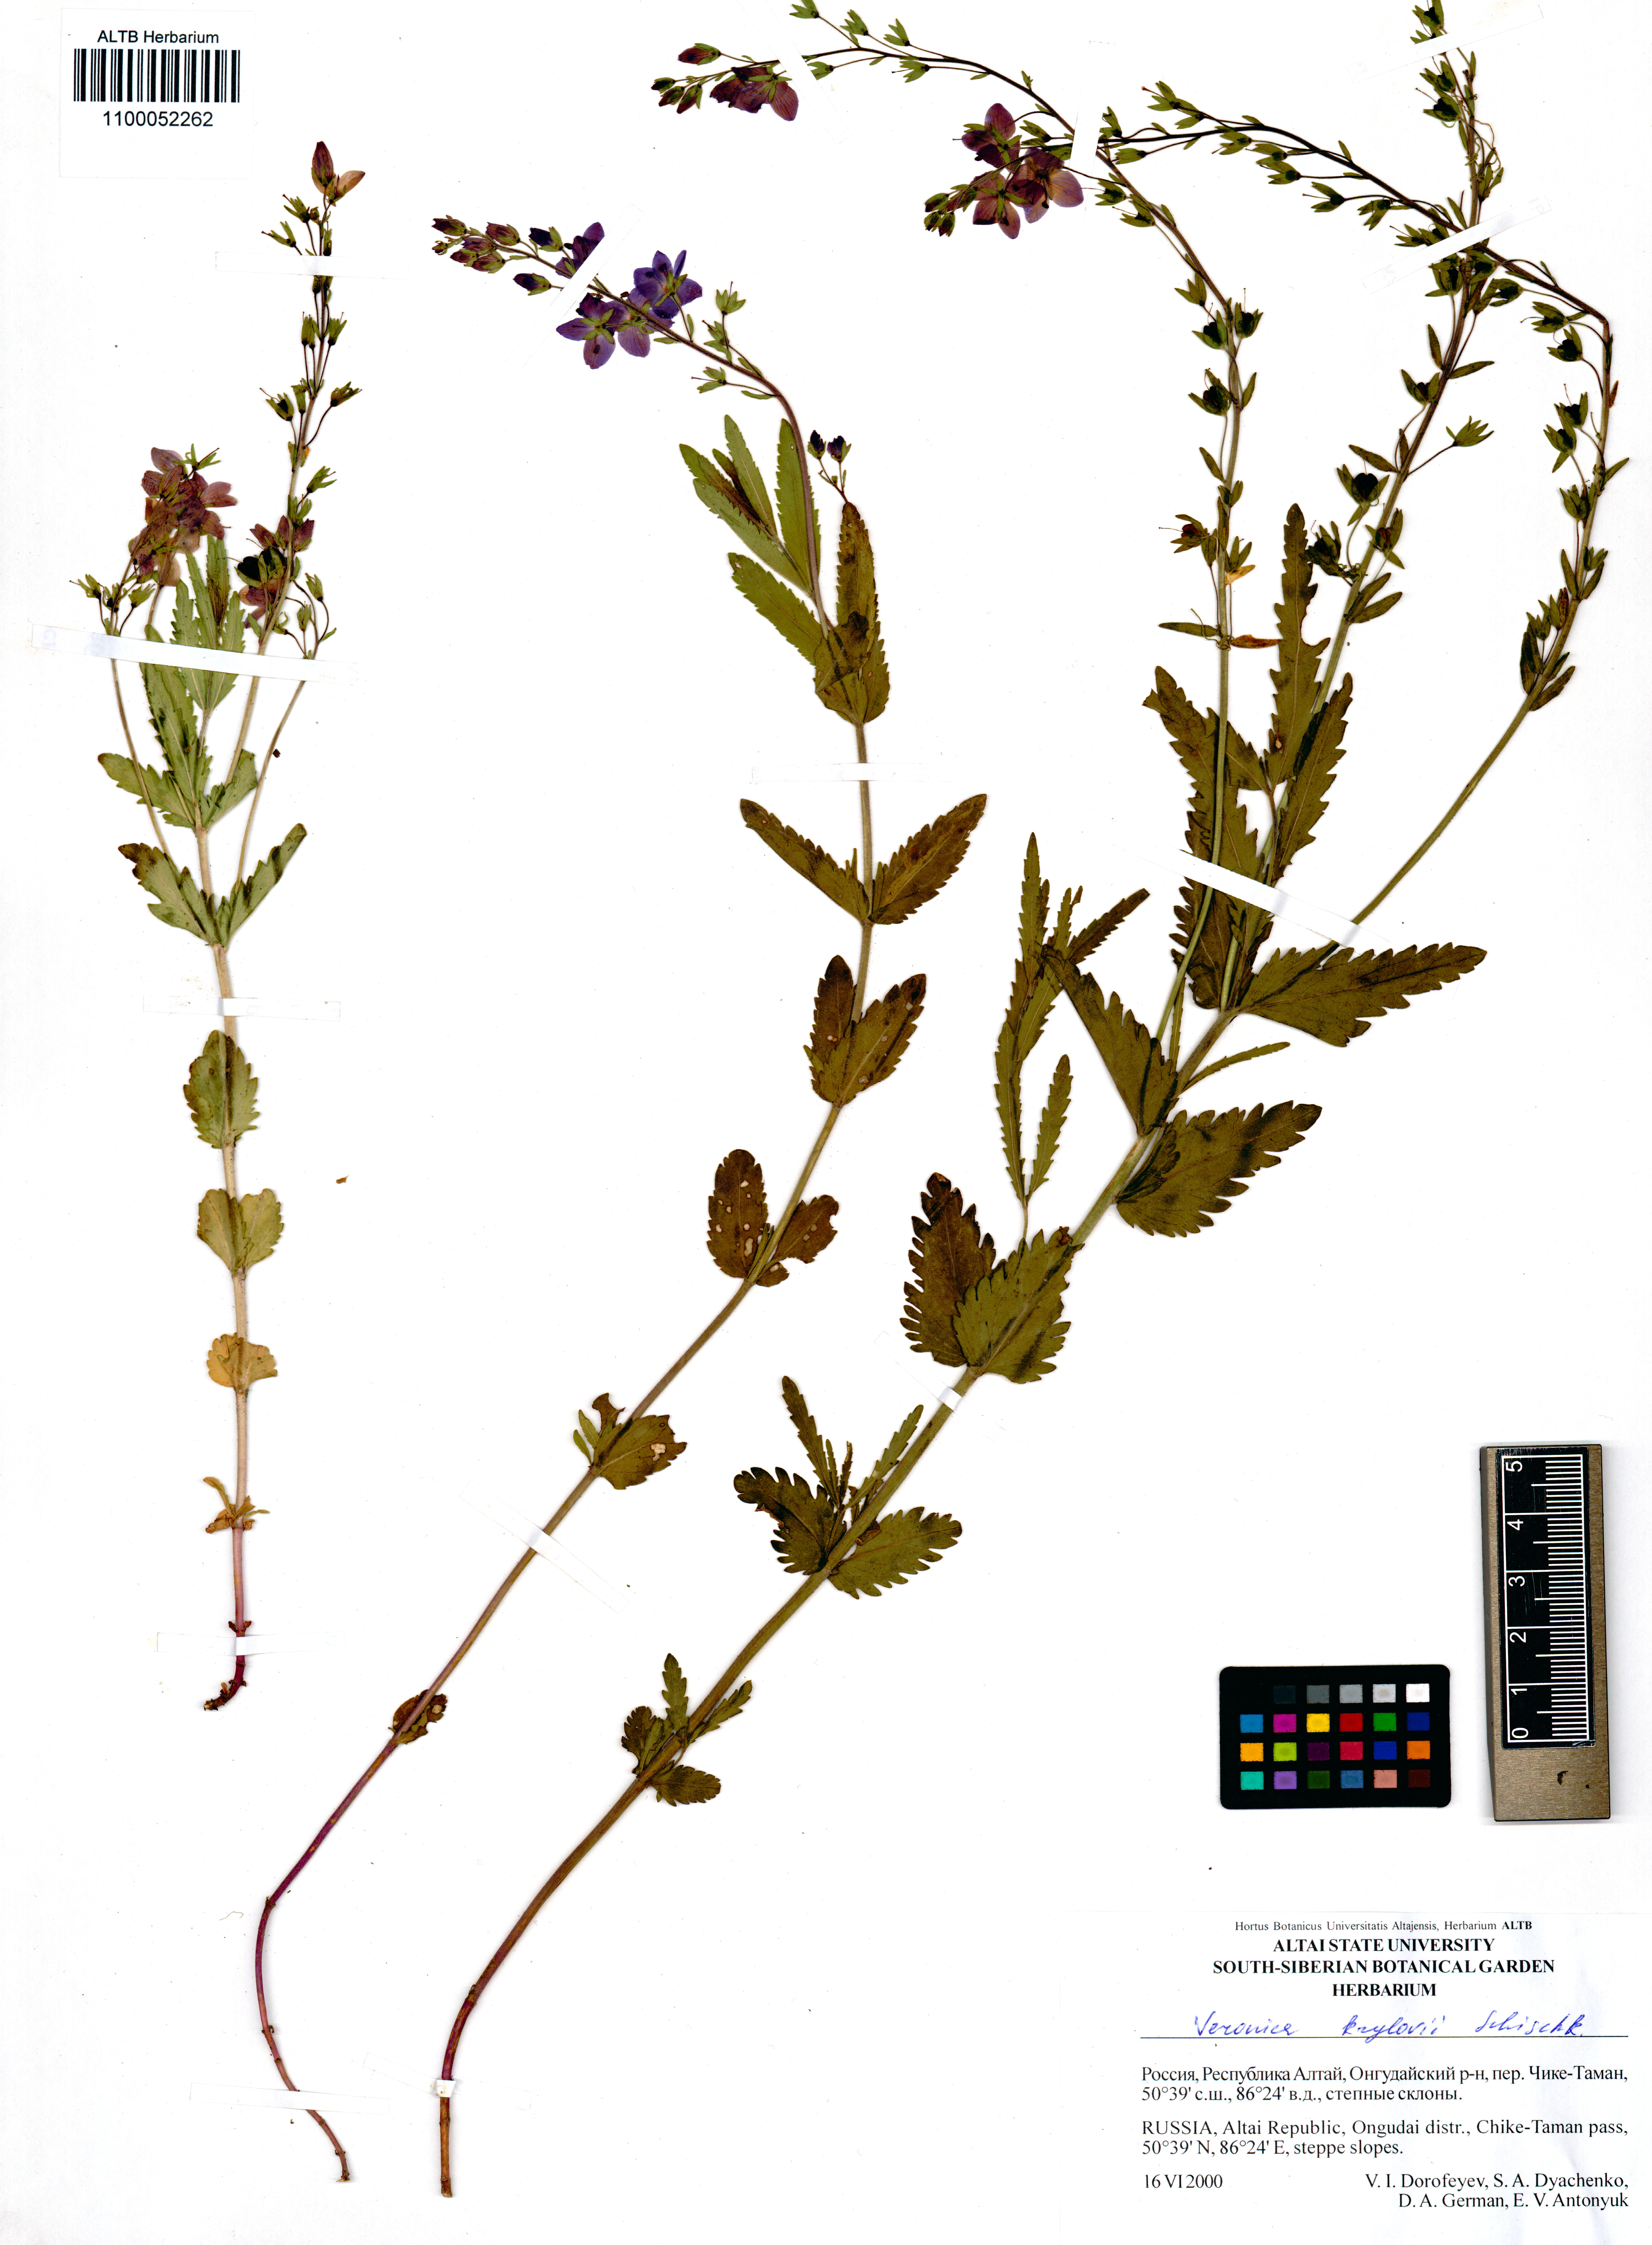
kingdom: Plantae
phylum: Tracheophyta
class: Magnoliopsida
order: Lamiales
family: Plantaginaceae
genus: Veronica
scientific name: Veronica krylovii
